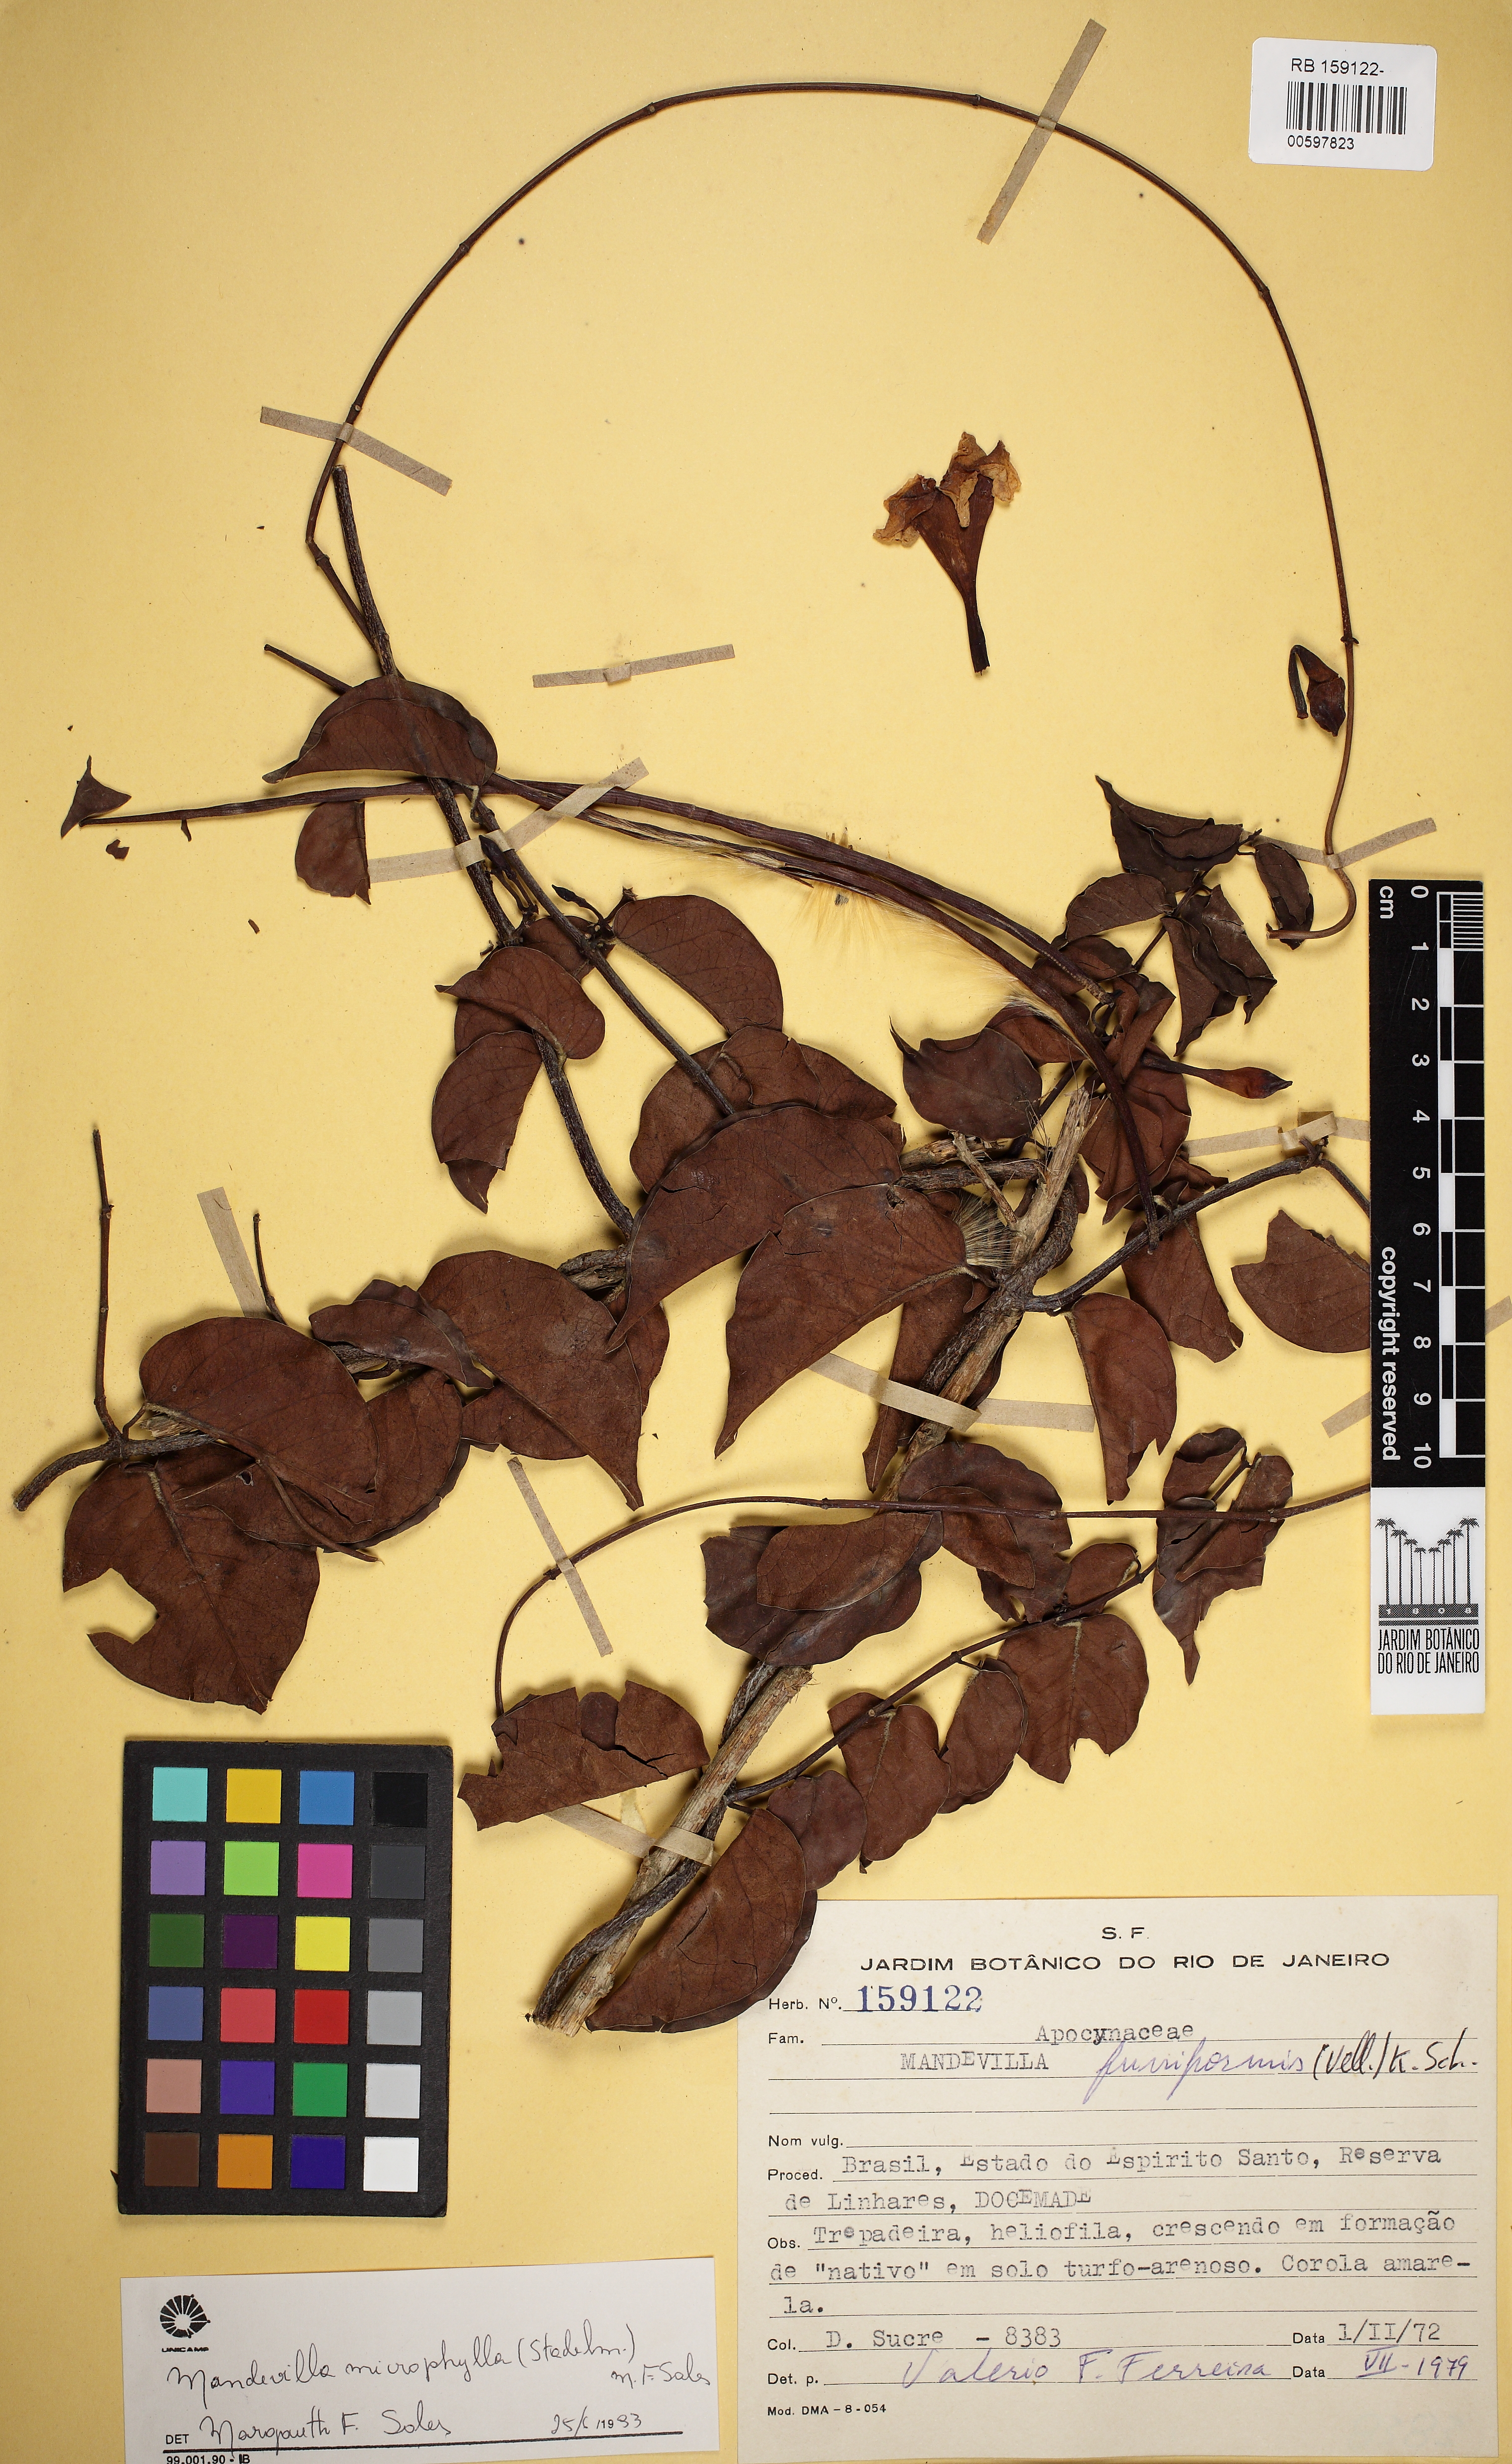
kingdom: Plantae
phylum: Tracheophyta
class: Magnoliopsida
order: Gentianales
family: Apocynaceae
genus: Mandevilla
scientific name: Mandevilla microphylla
